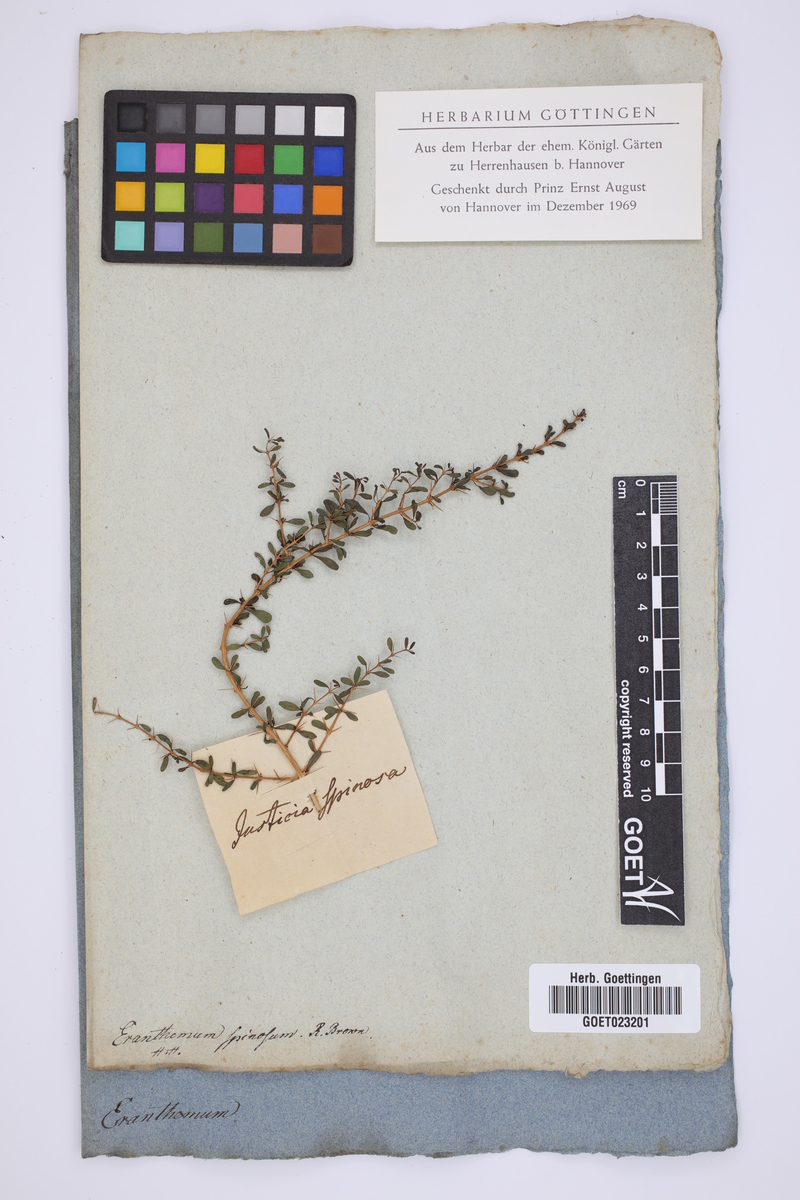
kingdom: Plantae
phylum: Tracheophyta
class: Magnoliopsida
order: Lamiales
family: Acanthaceae
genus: Eranthemum
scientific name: Eranthemum spinosum
